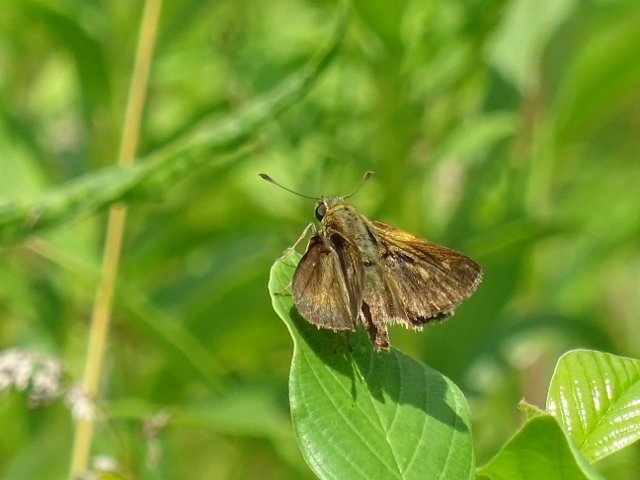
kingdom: Animalia
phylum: Arthropoda
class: Insecta
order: Lepidoptera
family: Hesperiidae
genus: Polites
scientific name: Polites egeremet
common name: Northern Broken-Dash
